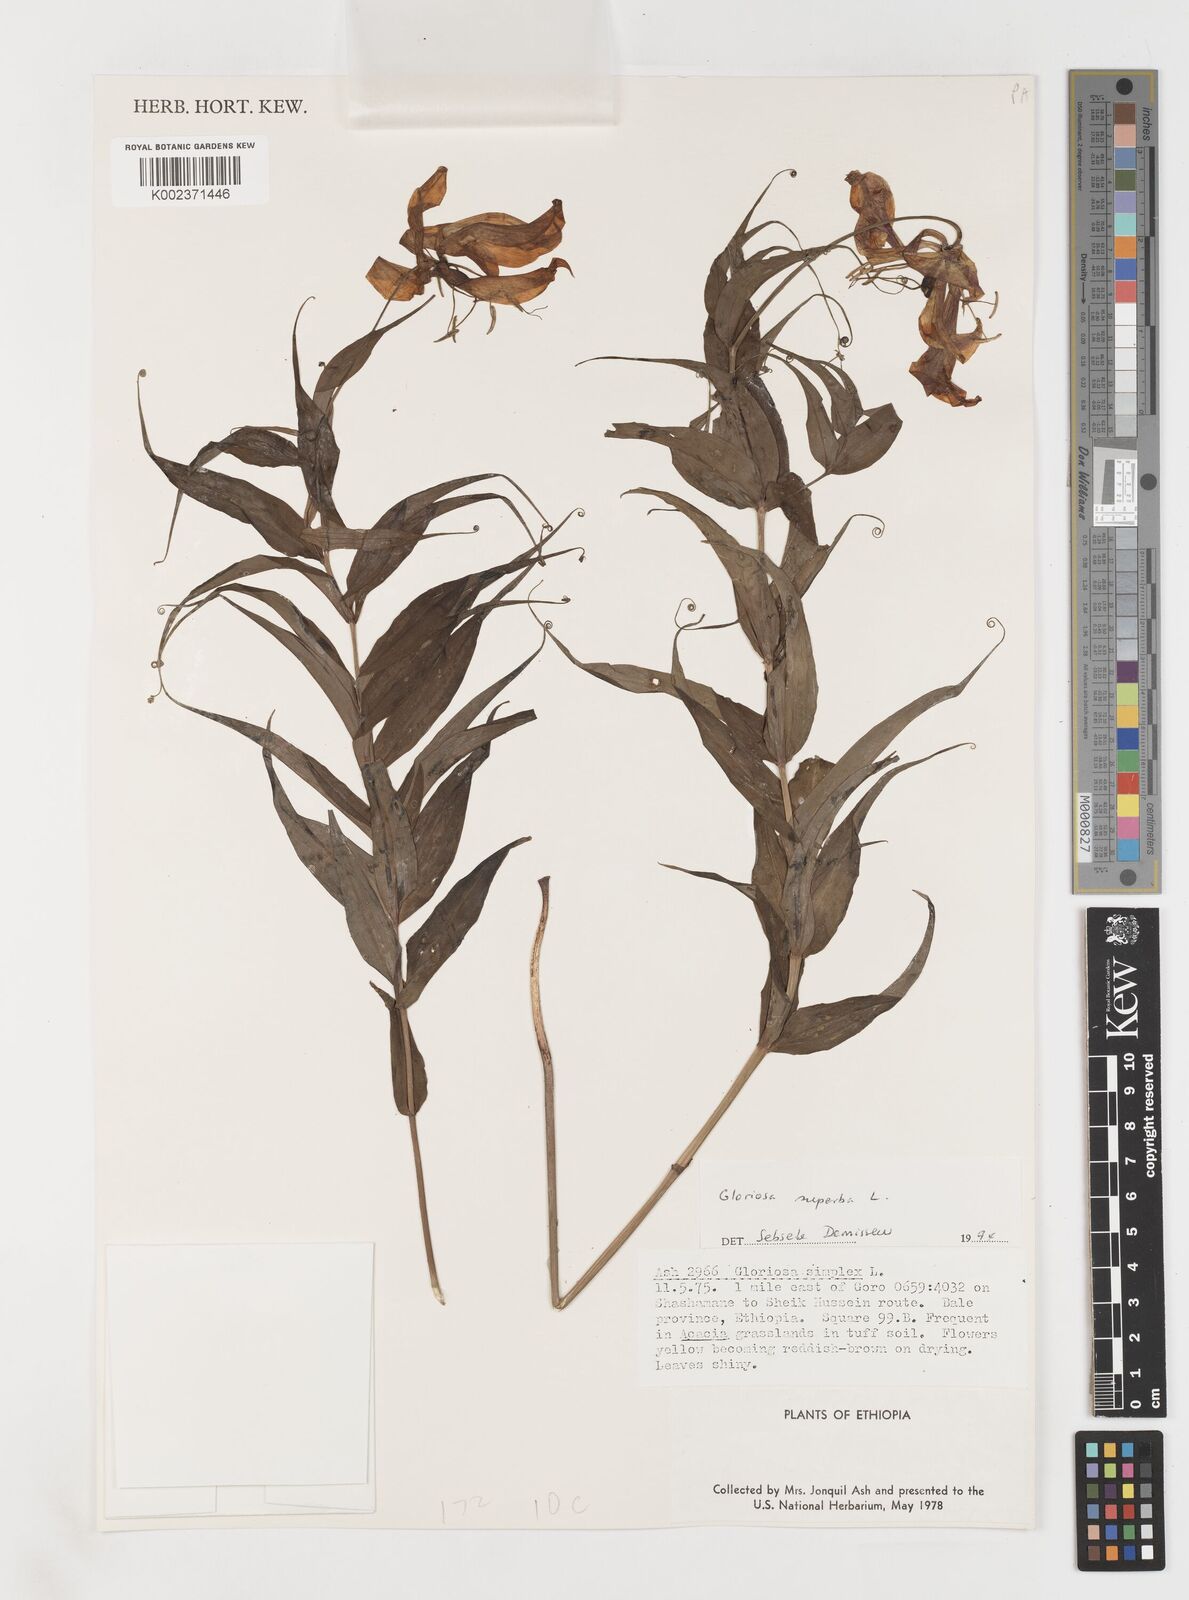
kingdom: Plantae
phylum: Tracheophyta
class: Liliopsida
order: Liliales
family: Colchicaceae
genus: Gloriosa
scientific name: Gloriosa simplex
